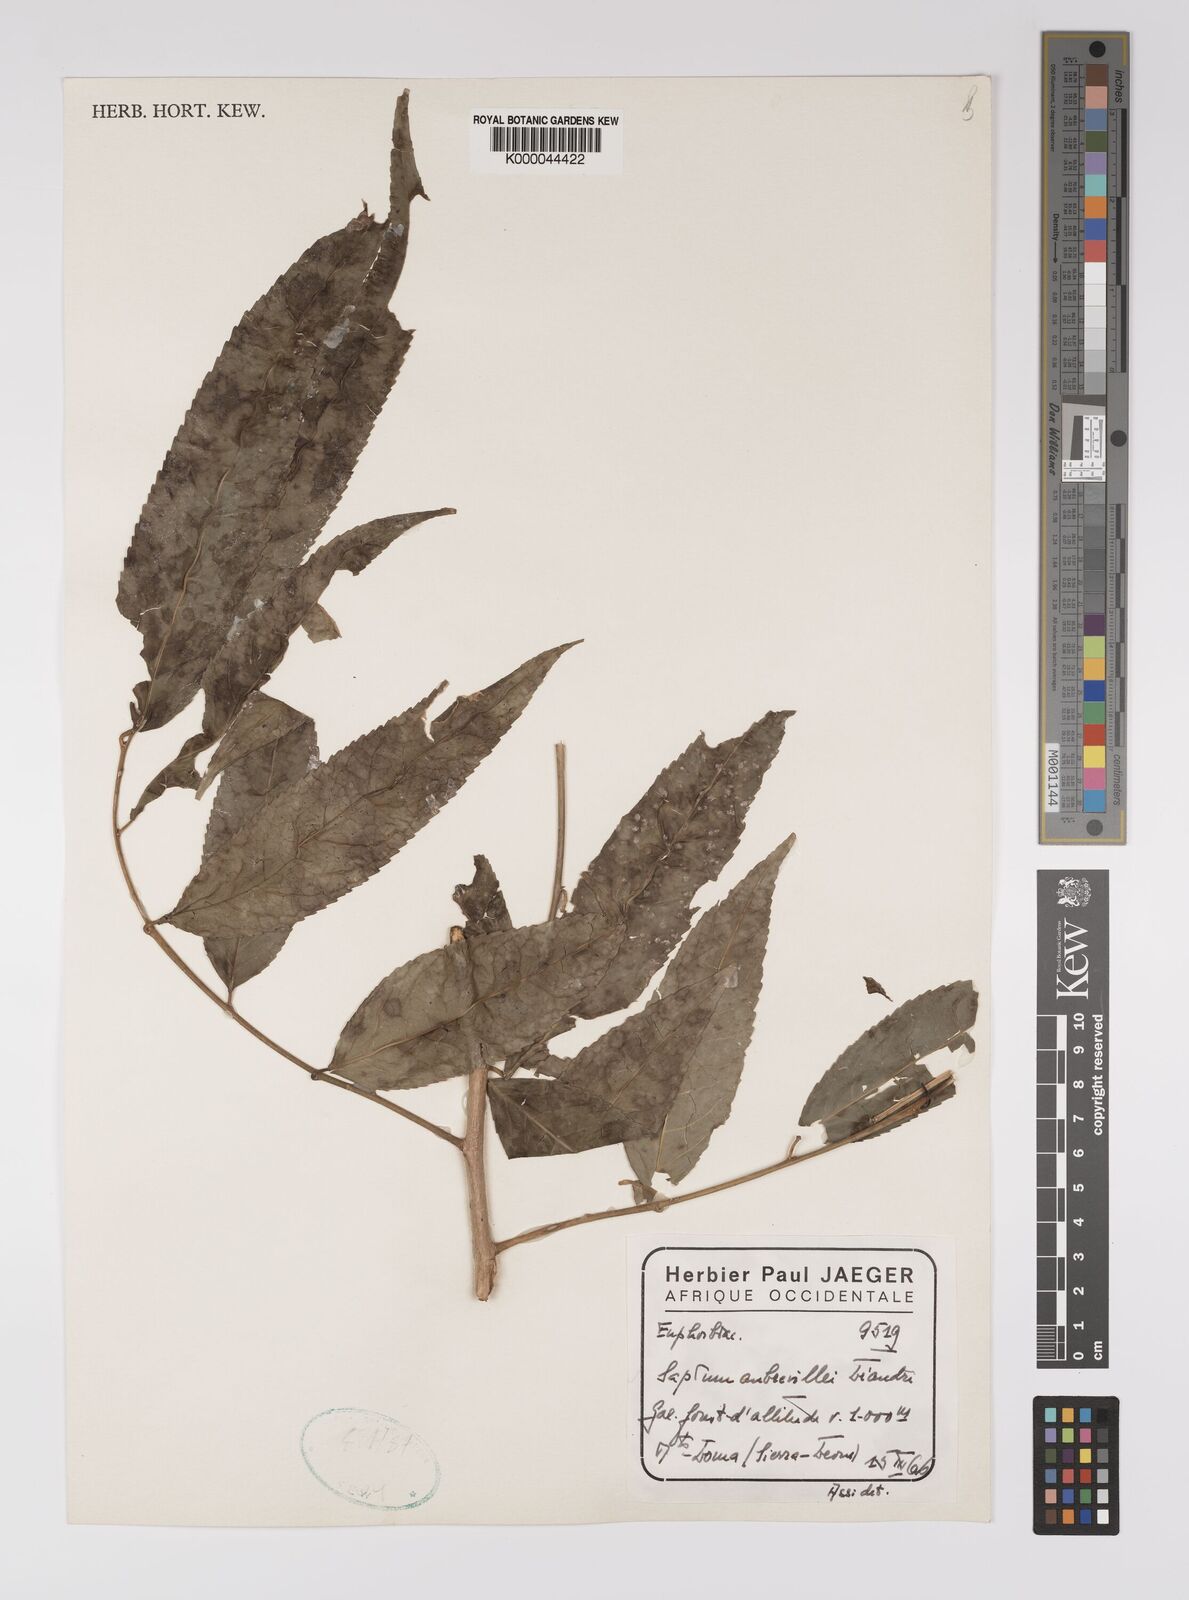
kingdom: Plantae
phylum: Tracheophyta
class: Magnoliopsida
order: Malpighiales
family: Euphorbiaceae
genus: Shirakiopsis
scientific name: Shirakiopsis aubrevillei
